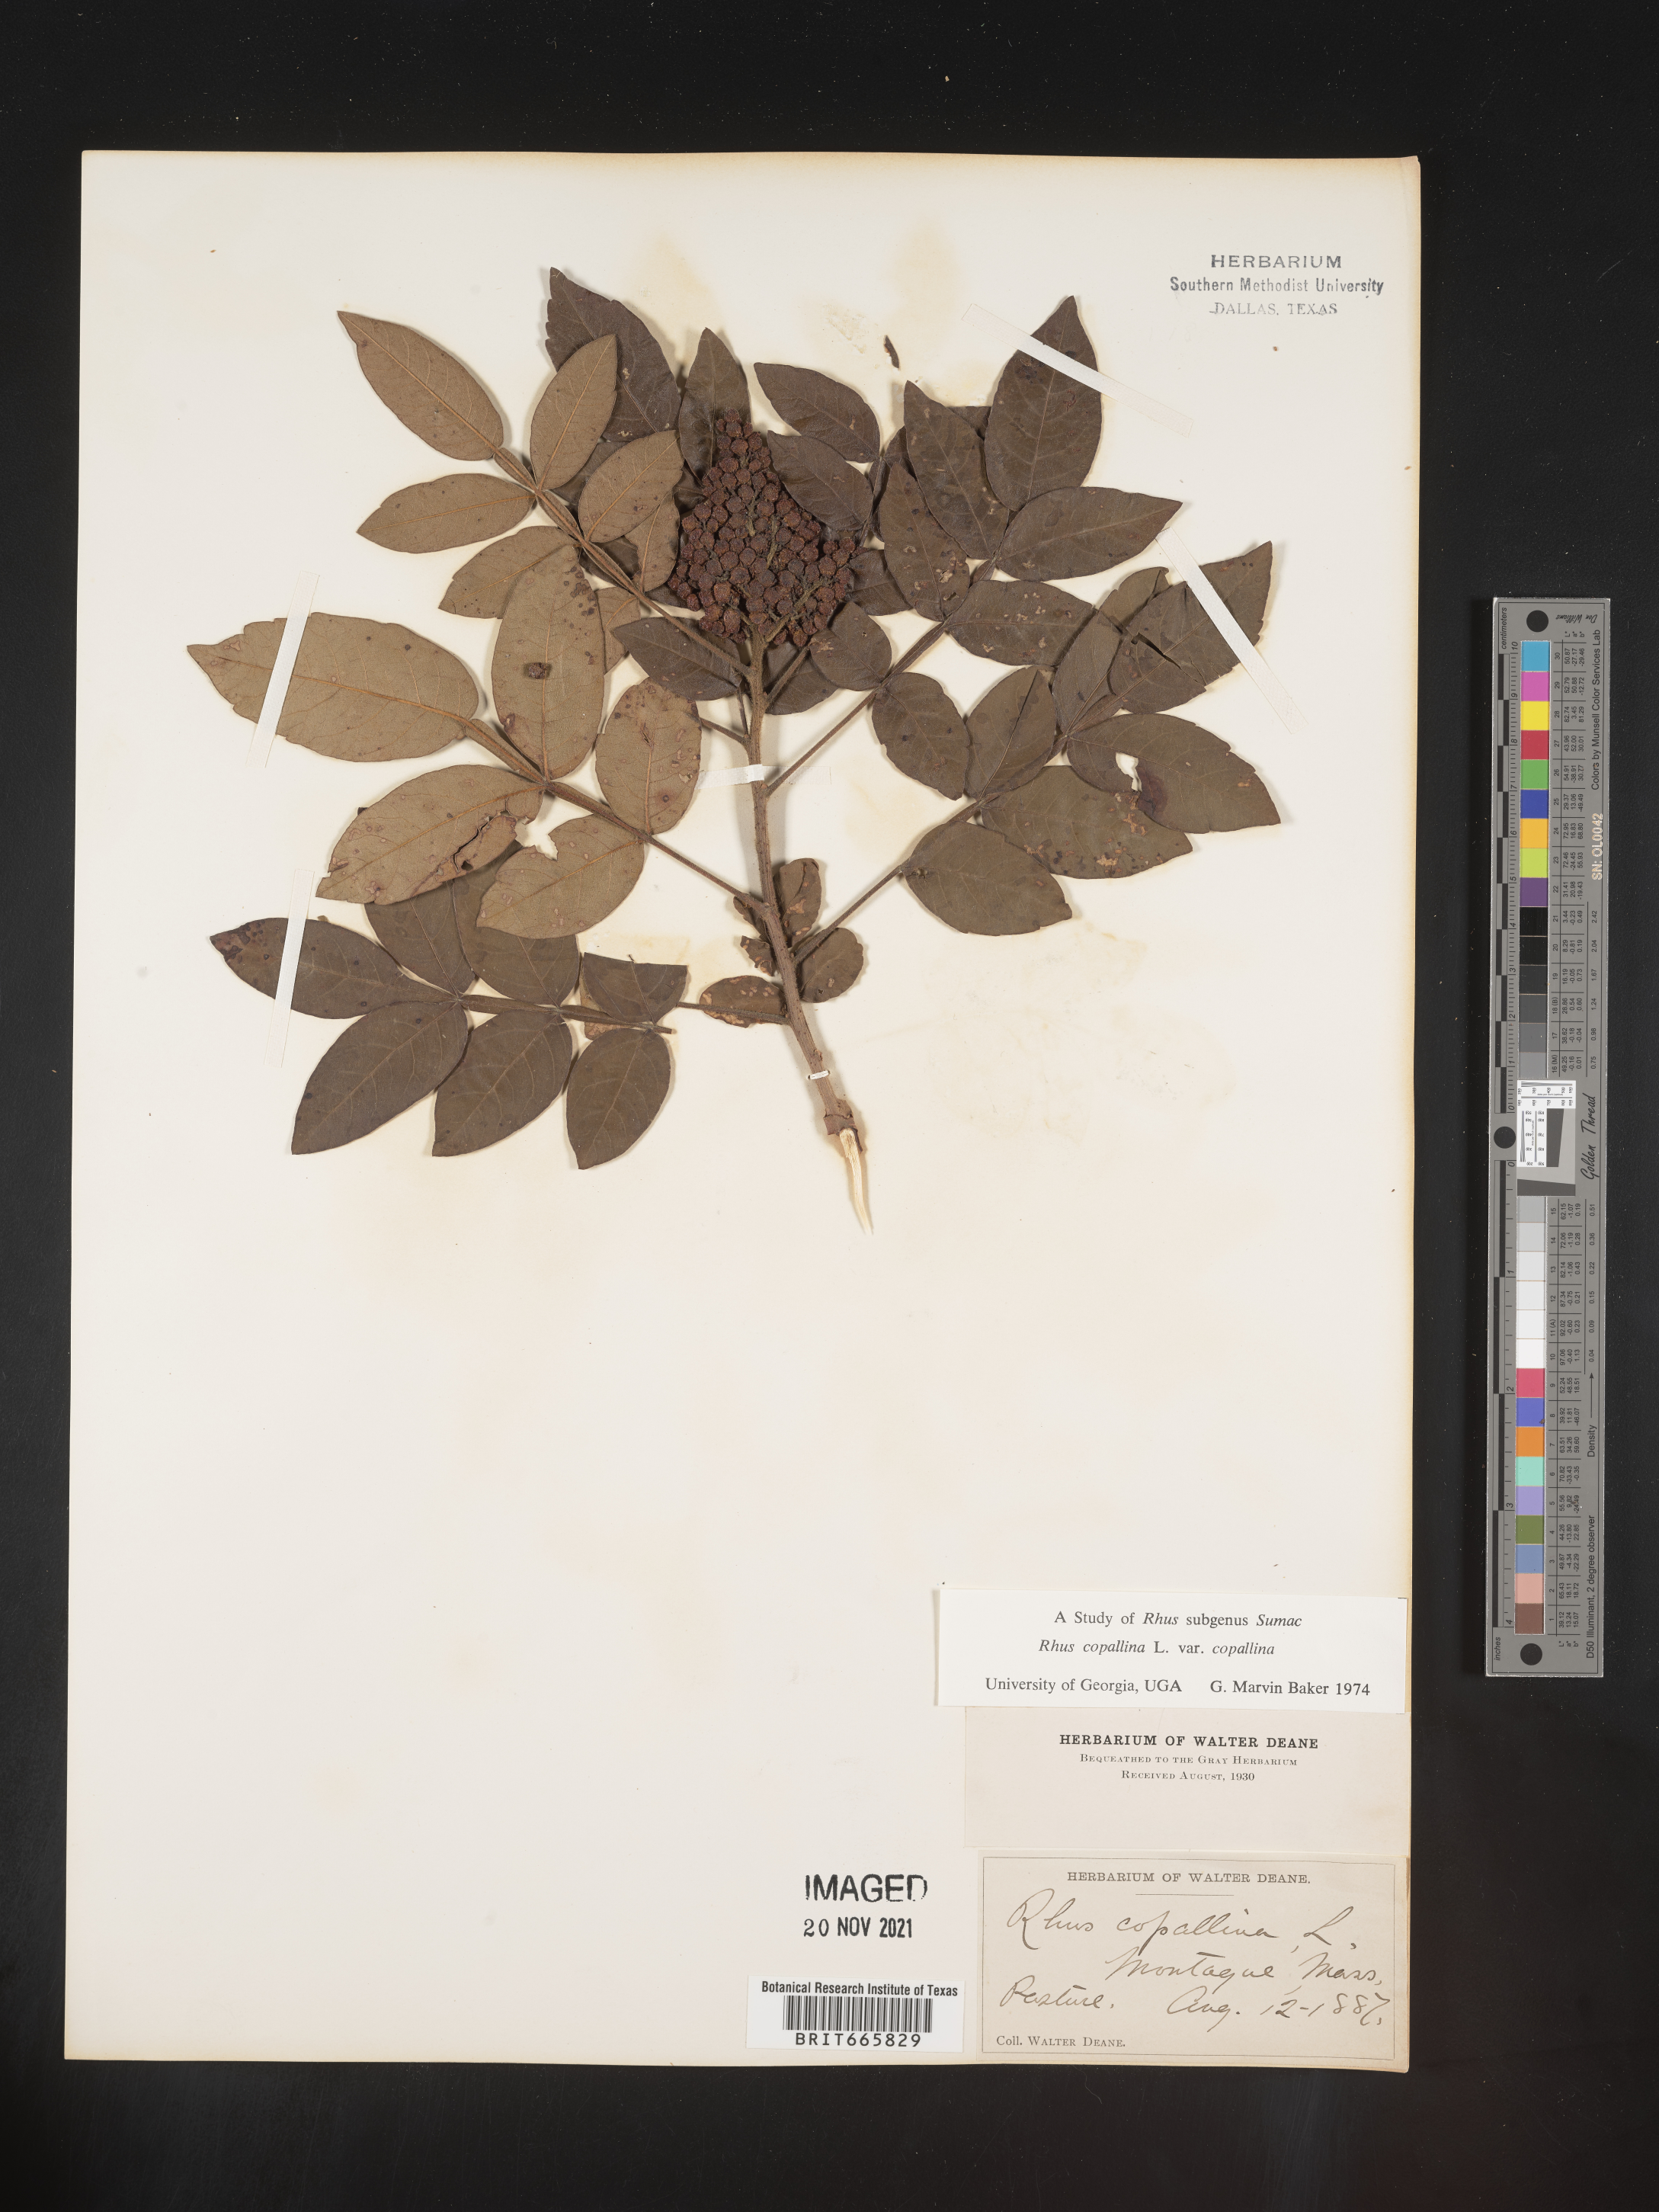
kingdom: Plantae
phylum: Tracheophyta
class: Magnoliopsida
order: Sapindales
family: Anacardiaceae
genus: Rhus
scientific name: Rhus copallina
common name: Shining sumac
